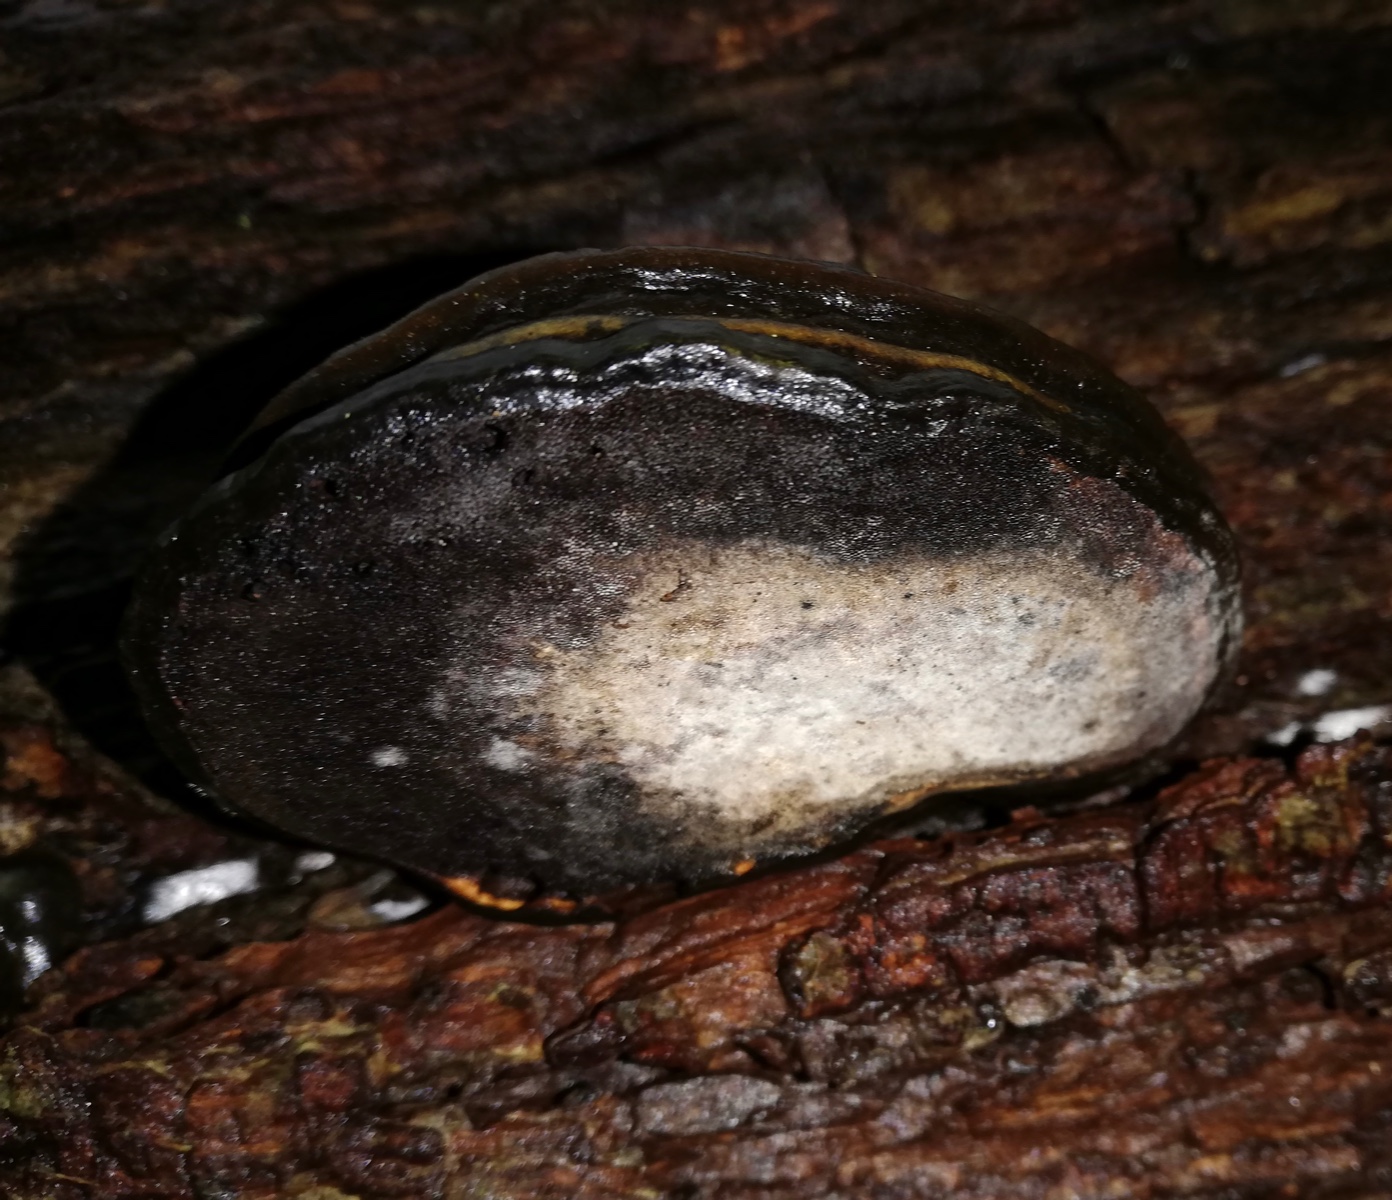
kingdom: Fungi
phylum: Basidiomycota
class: Agaricomycetes
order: Polyporales
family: Polyporaceae
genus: Fomes
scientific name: Fomes fomentarius
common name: tøndersvamp
